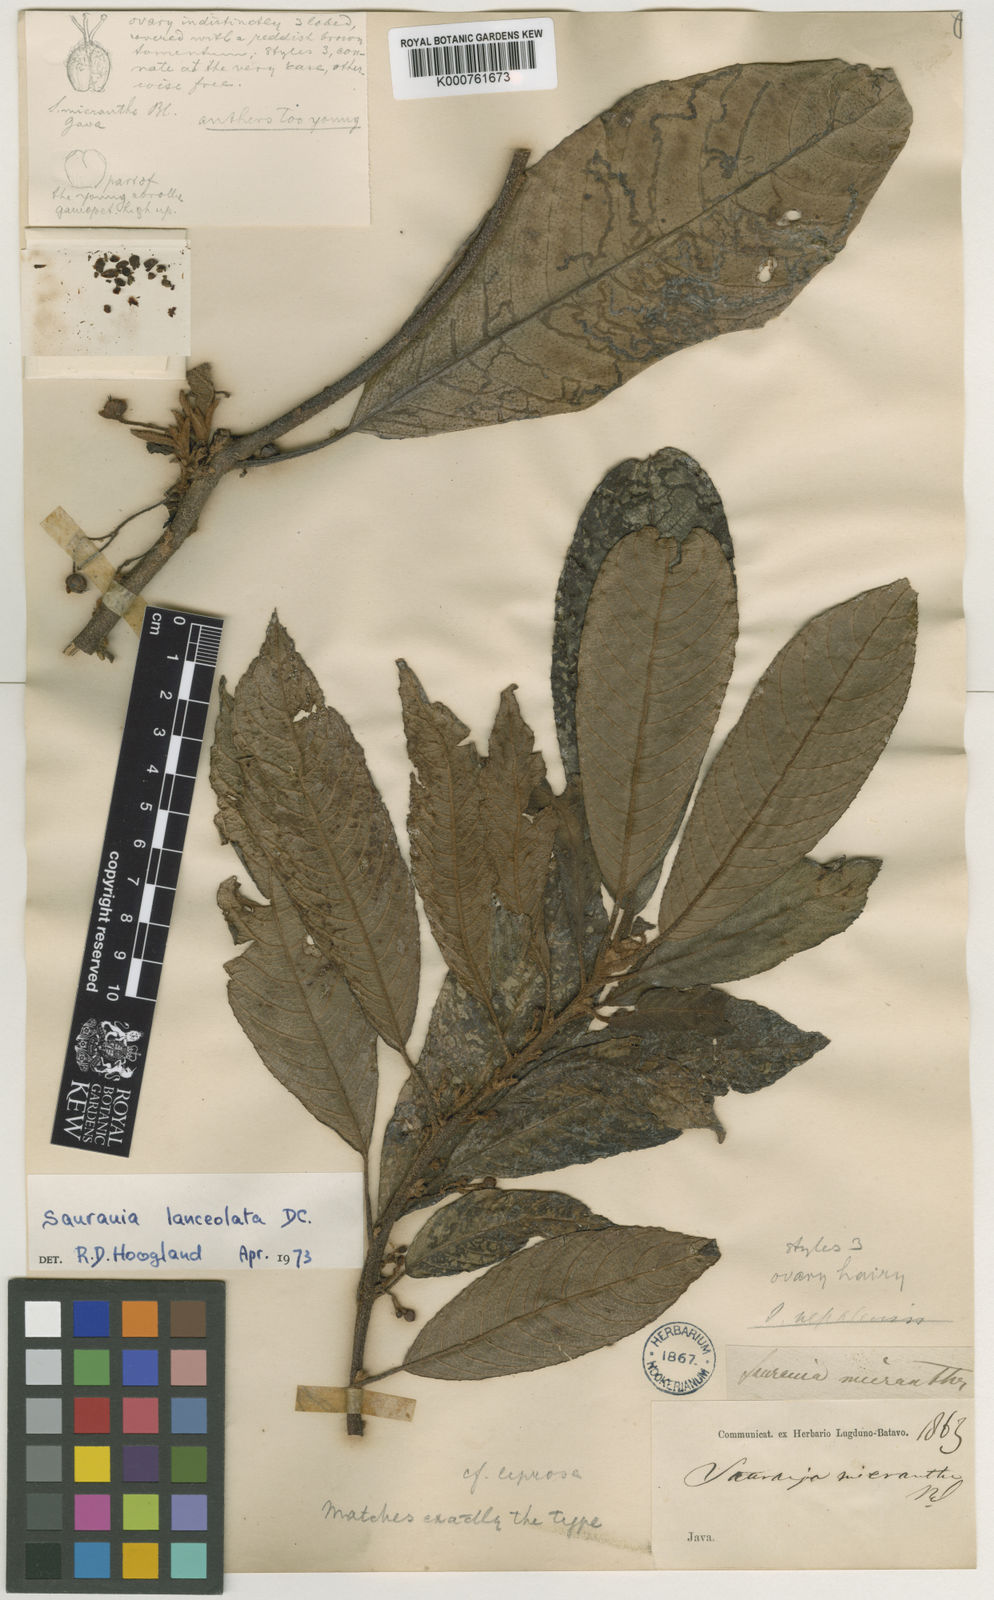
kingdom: Plantae
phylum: Tracheophyta
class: Magnoliopsida
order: Ericales
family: Actinidiaceae
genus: Saurauia
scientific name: Saurauia lanceolata
